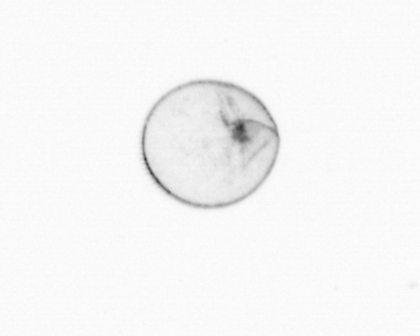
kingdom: Chromista
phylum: Myzozoa
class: Dinophyceae
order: Noctilucales
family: Noctilucaceae
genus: Noctiluca
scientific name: Noctiluca scintillans
